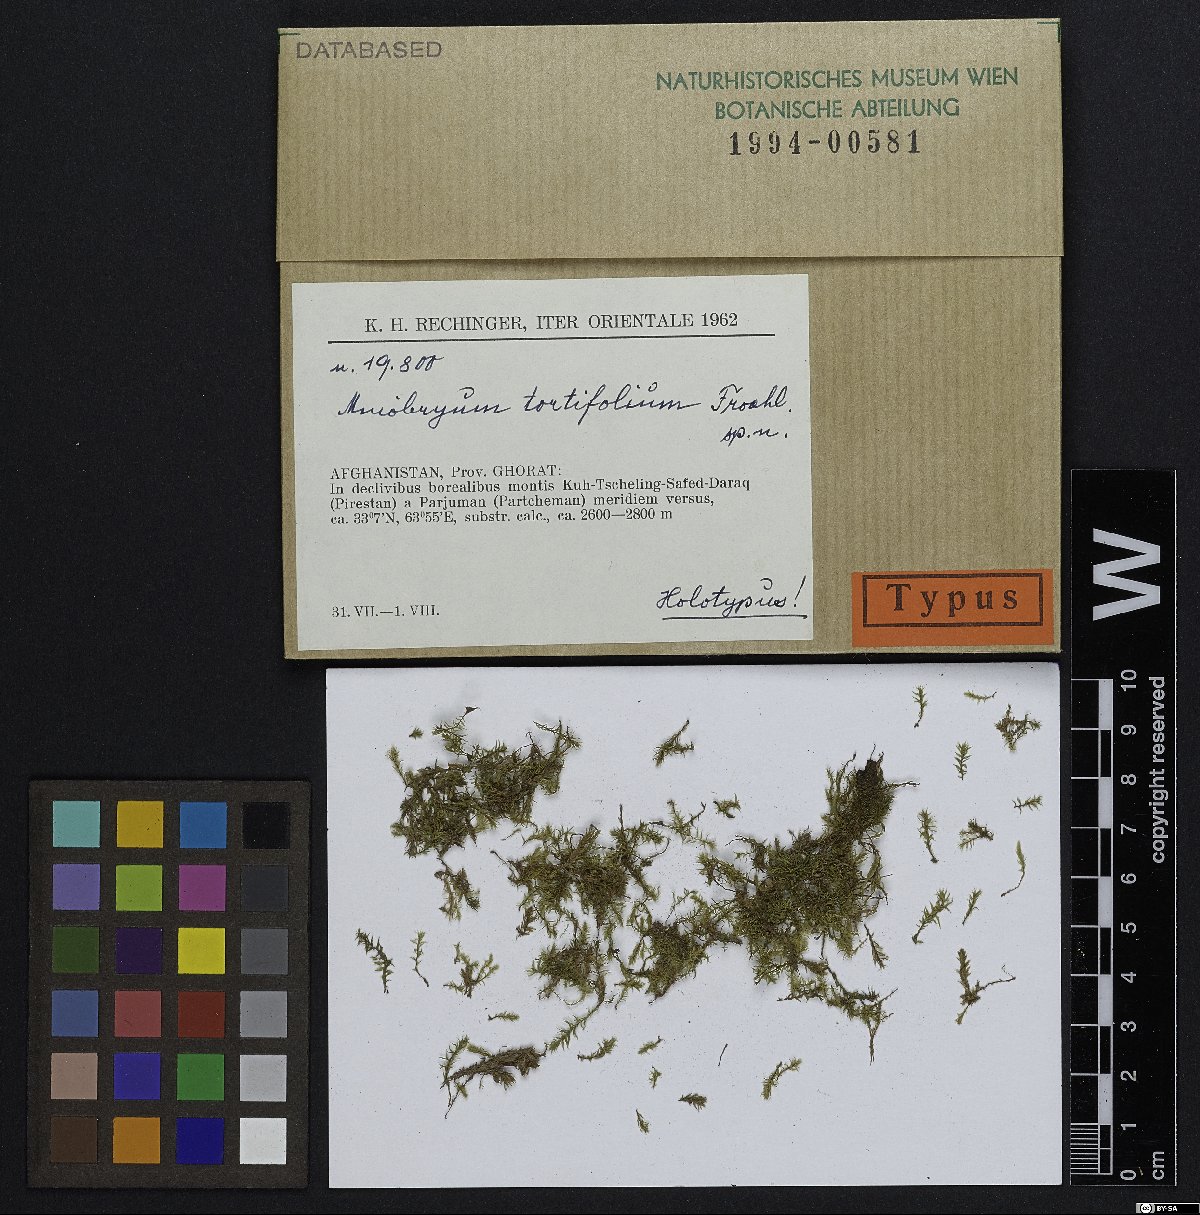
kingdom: Plantae
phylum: Bryophyta
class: Bryopsida
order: Bryales
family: Mniaceae
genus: Mniobryum
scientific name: Mniobryum tortifolium
